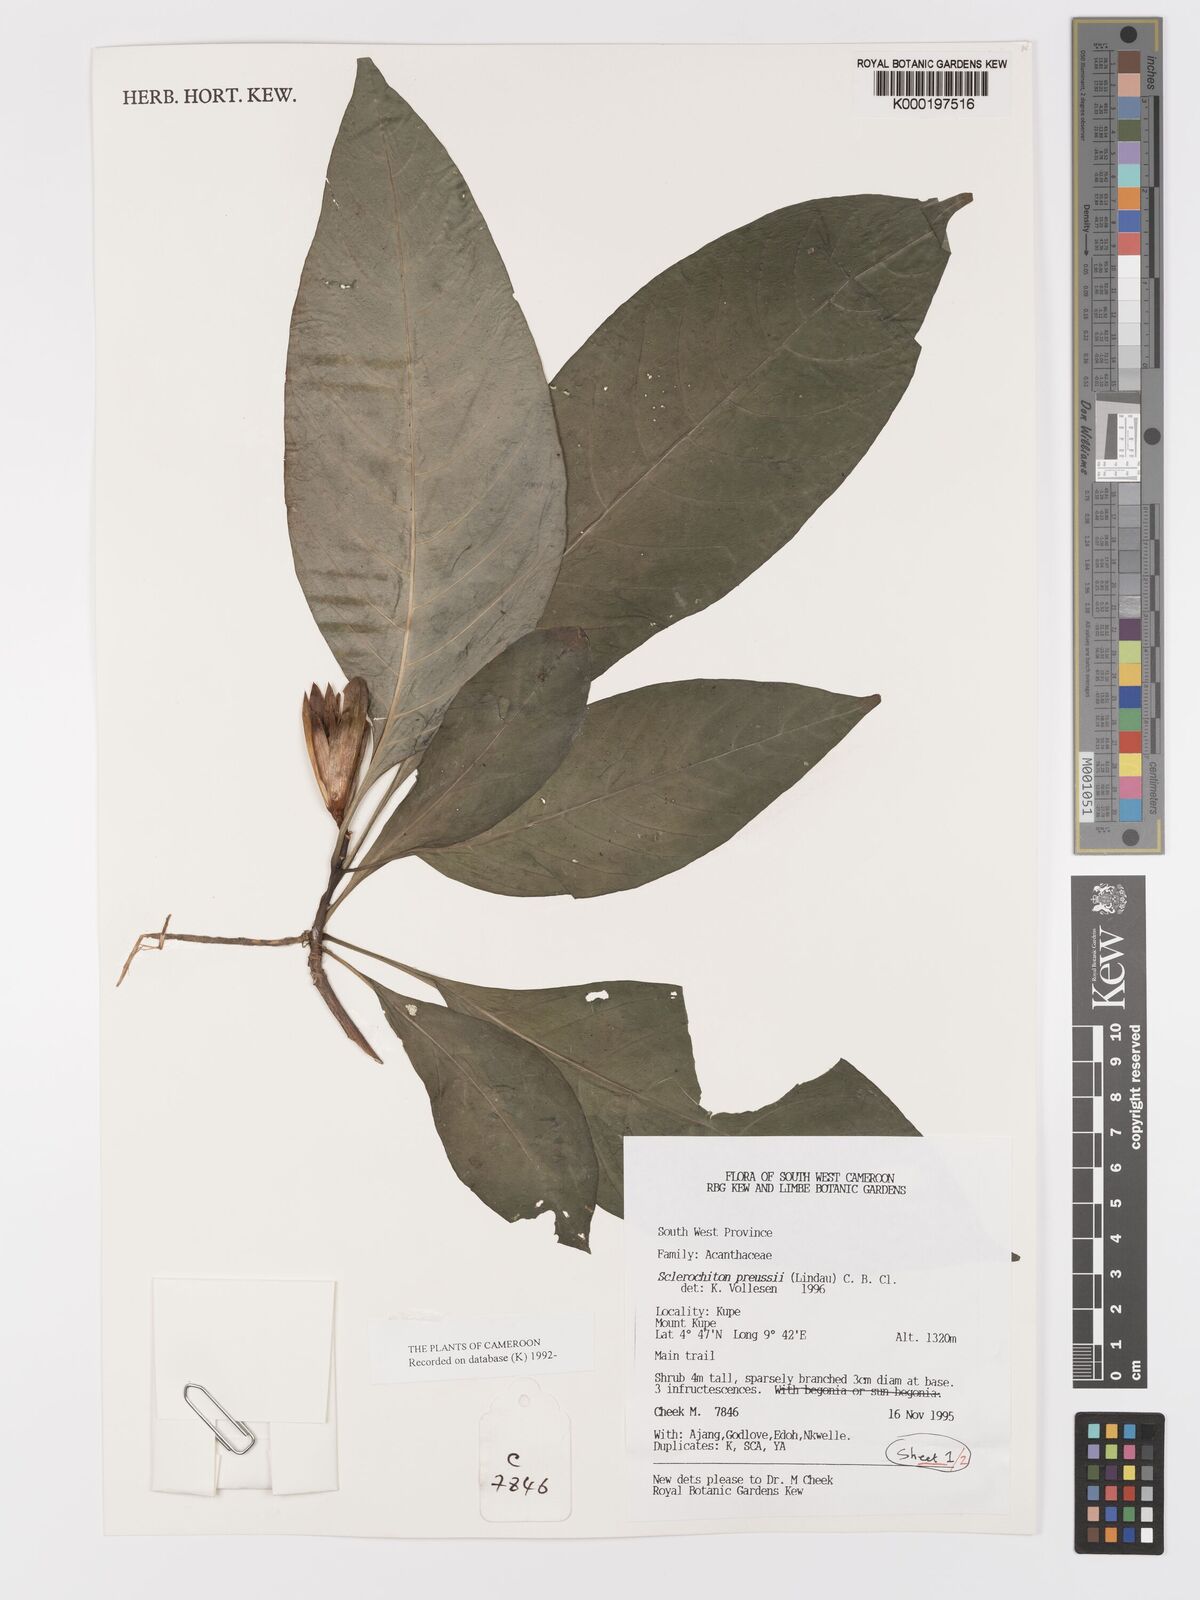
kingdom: Plantae
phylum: Tracheophyta
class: Magnoliopsida
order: Lamiales
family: Acanthaceae
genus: Sclerochiton
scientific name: Sclerochiton preussii
